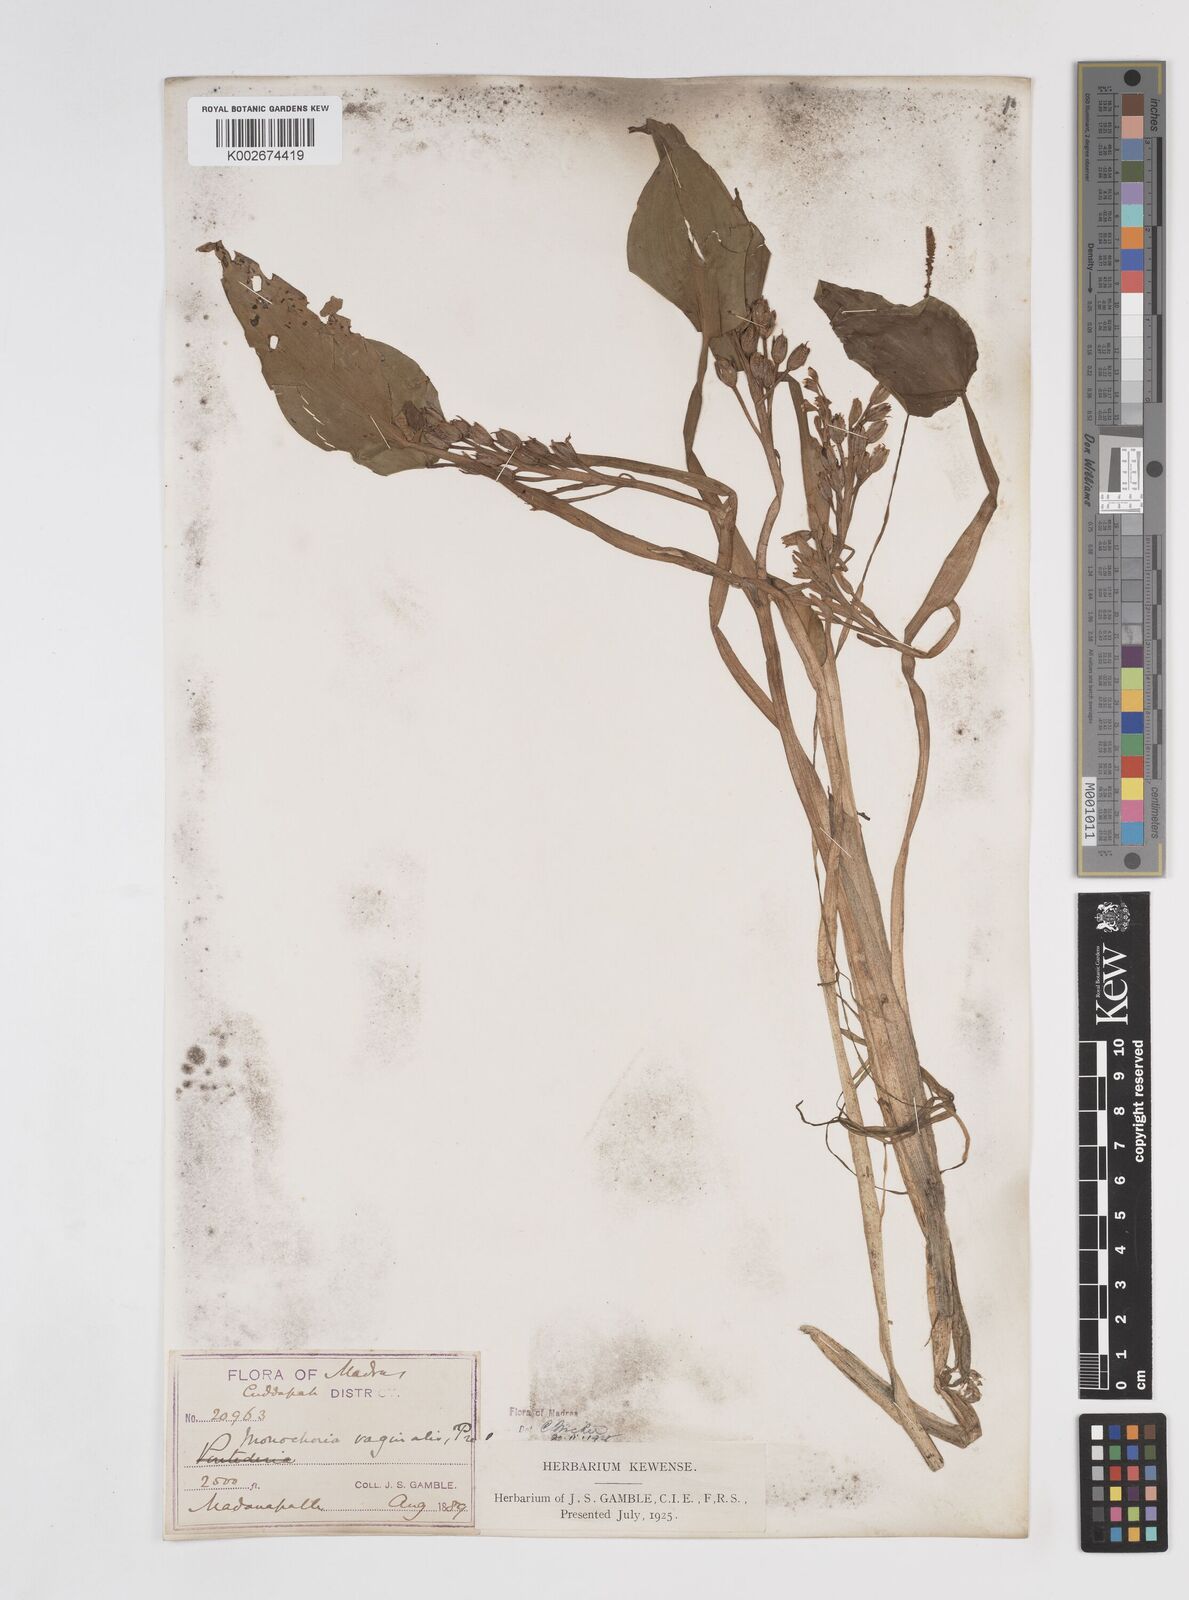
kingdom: Plantae
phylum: Tracheophyta
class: Liliopsida
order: Commelinales
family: Pontederiaceae
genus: Pontederia
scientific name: Pontederia vaginalis
